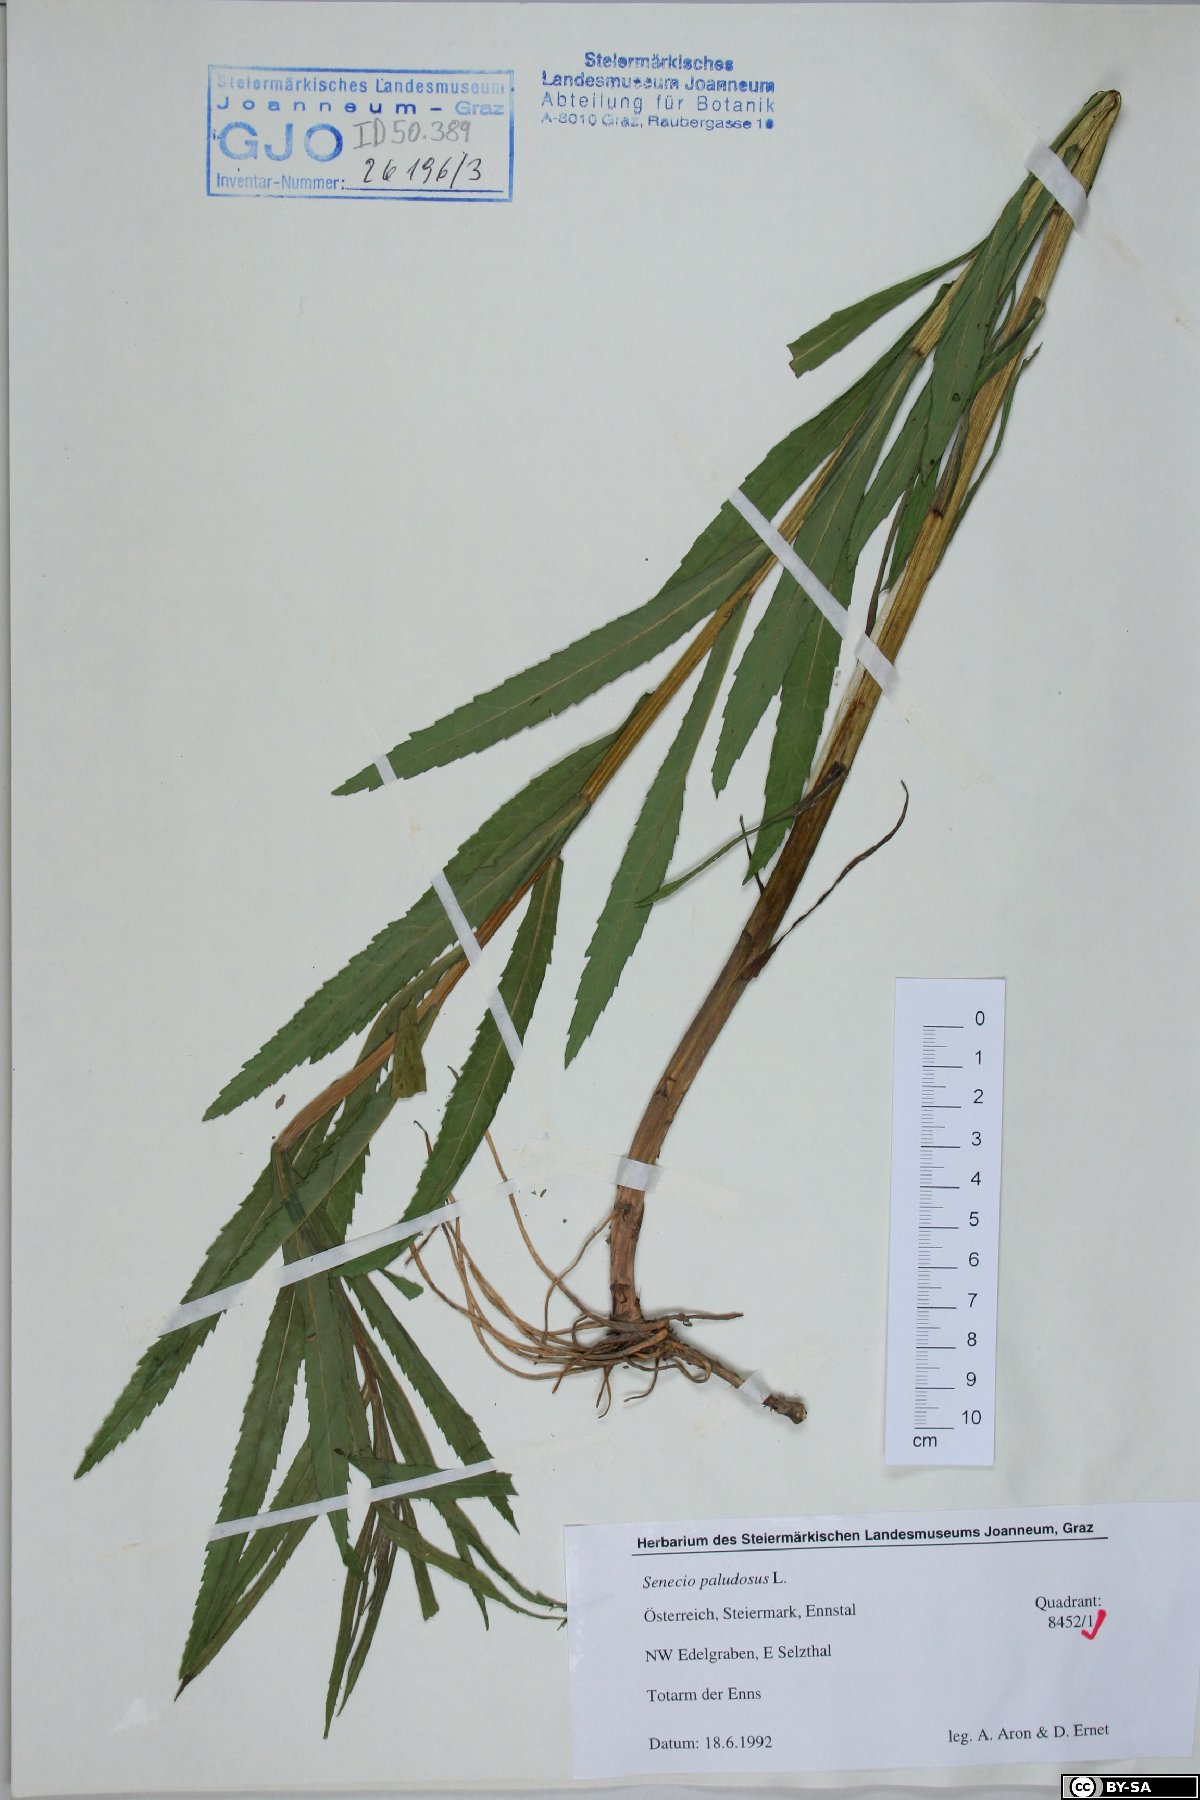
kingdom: Plantae
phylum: Tracheophyta
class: Magnoliopsida
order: Asterales
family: Asteraceae
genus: Jacobaea
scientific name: Jacobaea paludosa
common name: Fen ragwort
